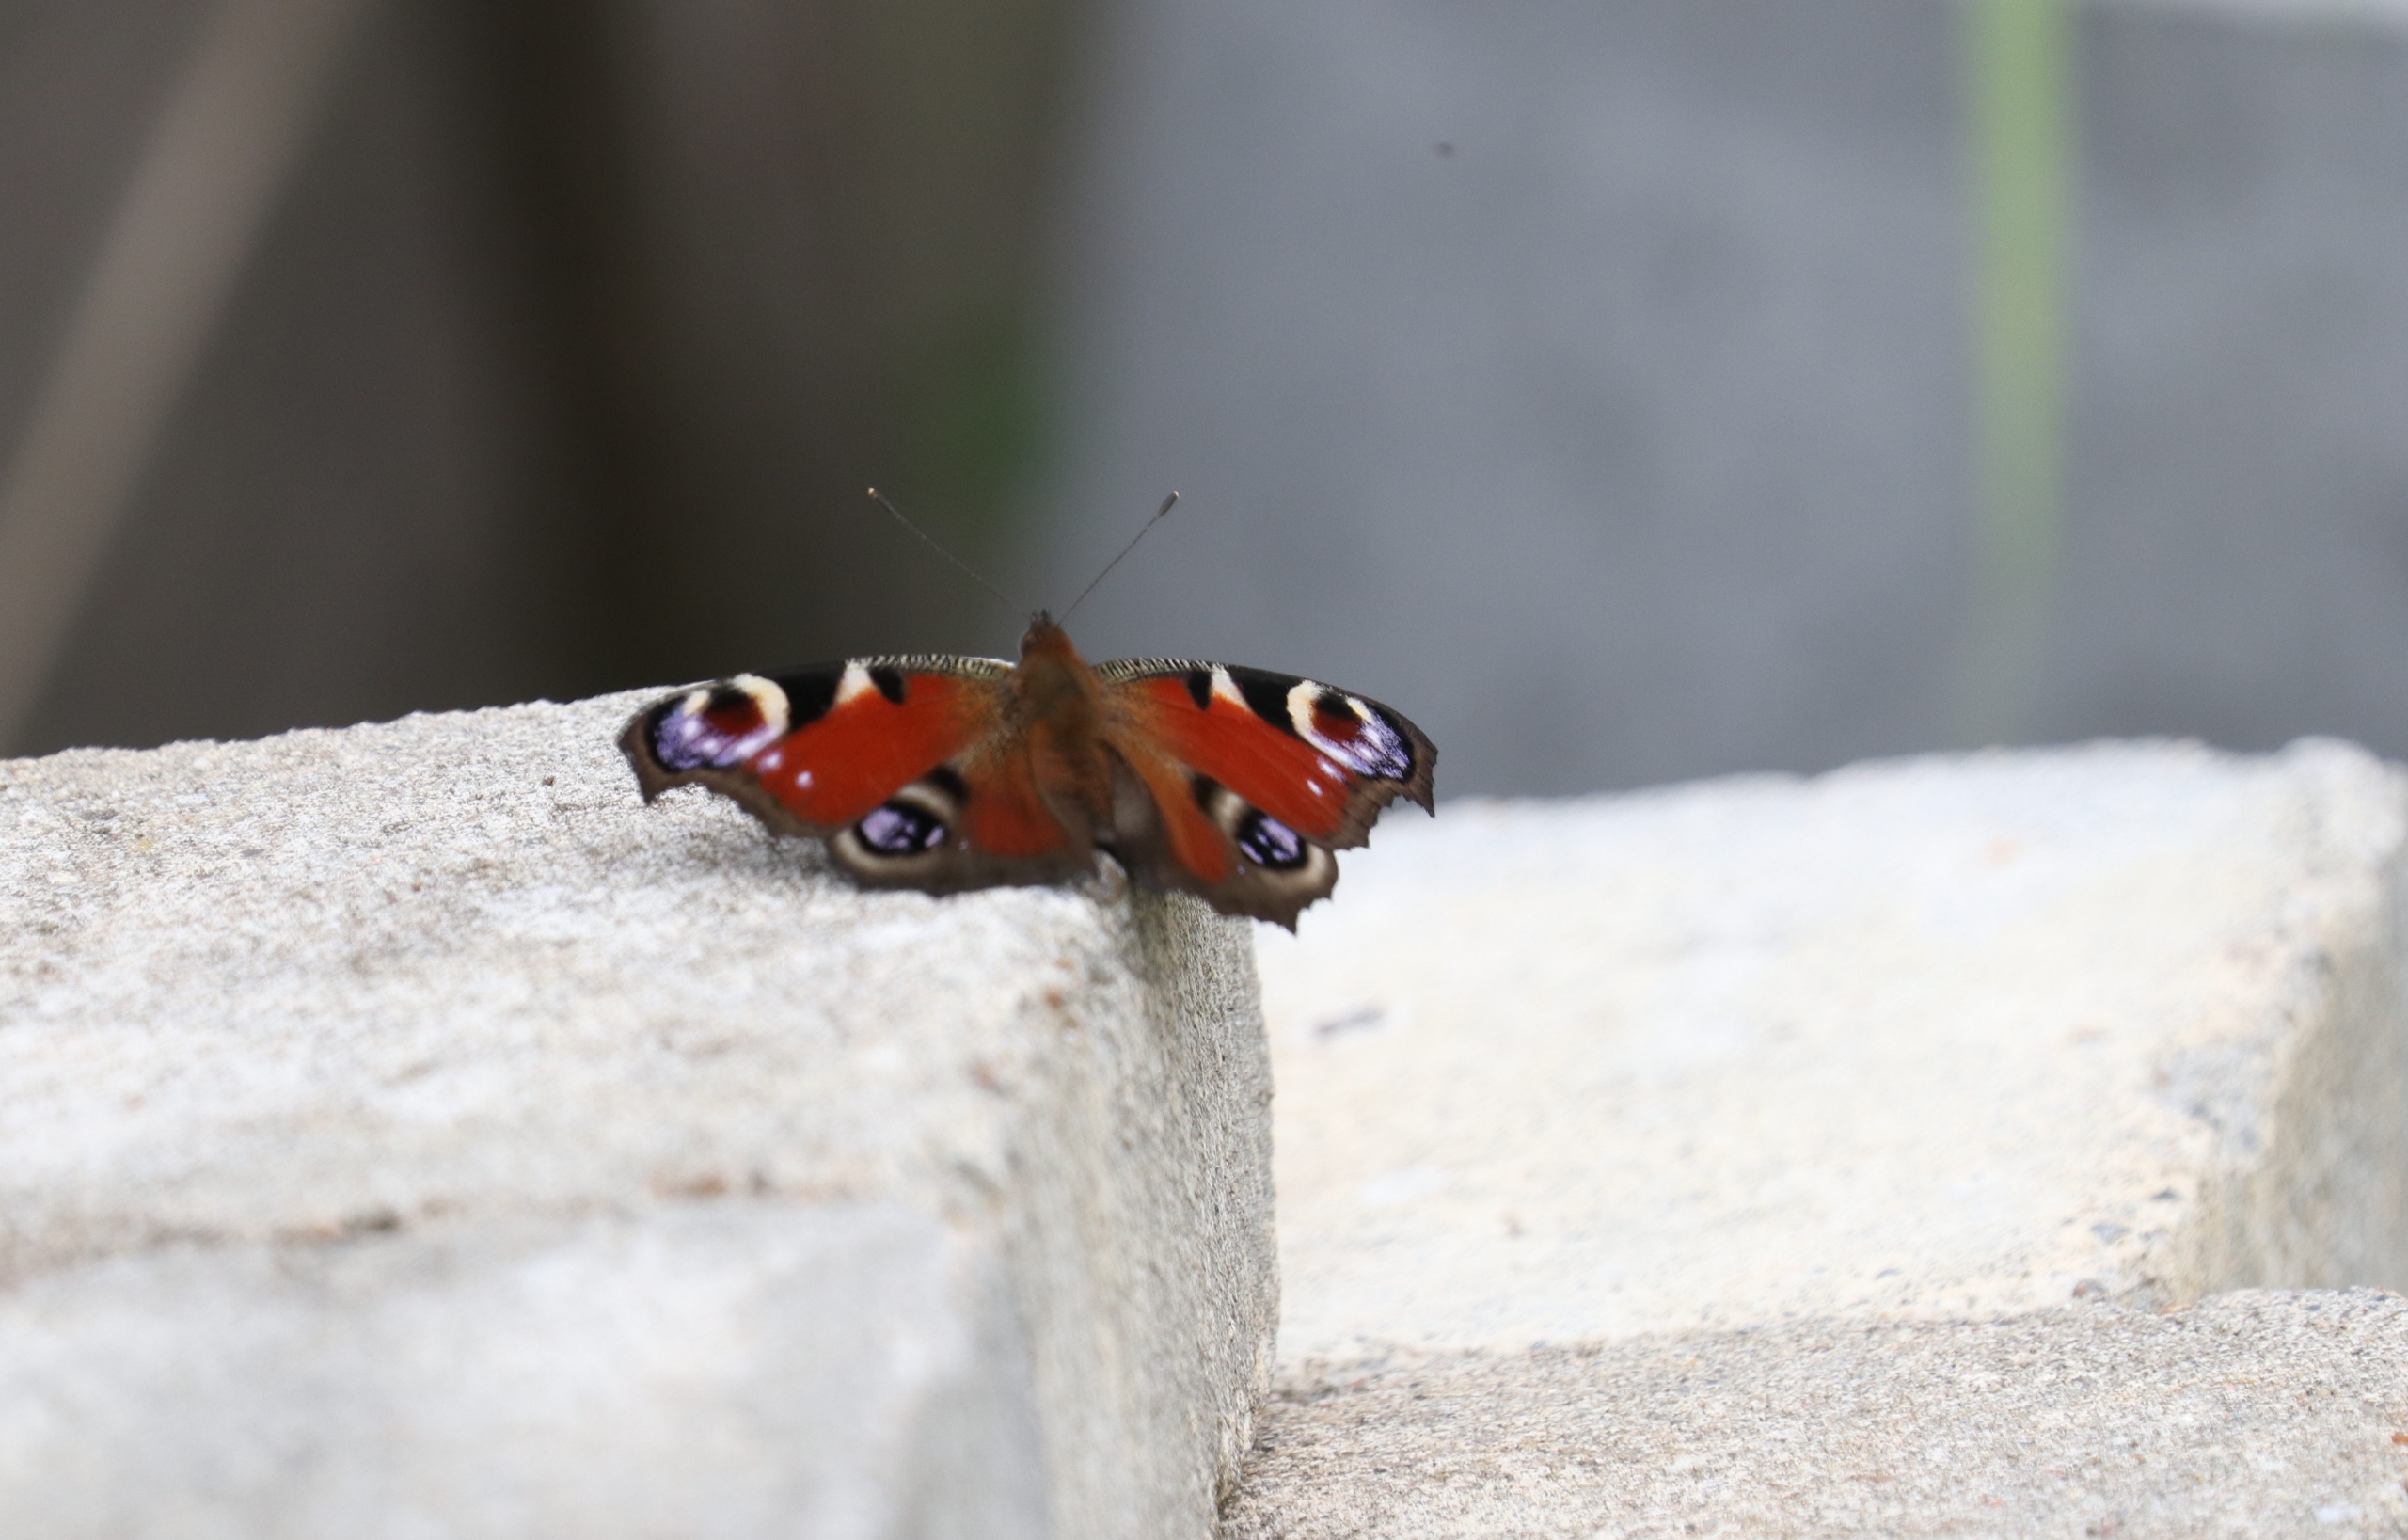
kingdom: Animalia
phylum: Arthropoda
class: Insecta
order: Lepidoptera
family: Nymphalidae
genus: Aglais
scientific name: Aglais io
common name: Dagpåfugleøje
